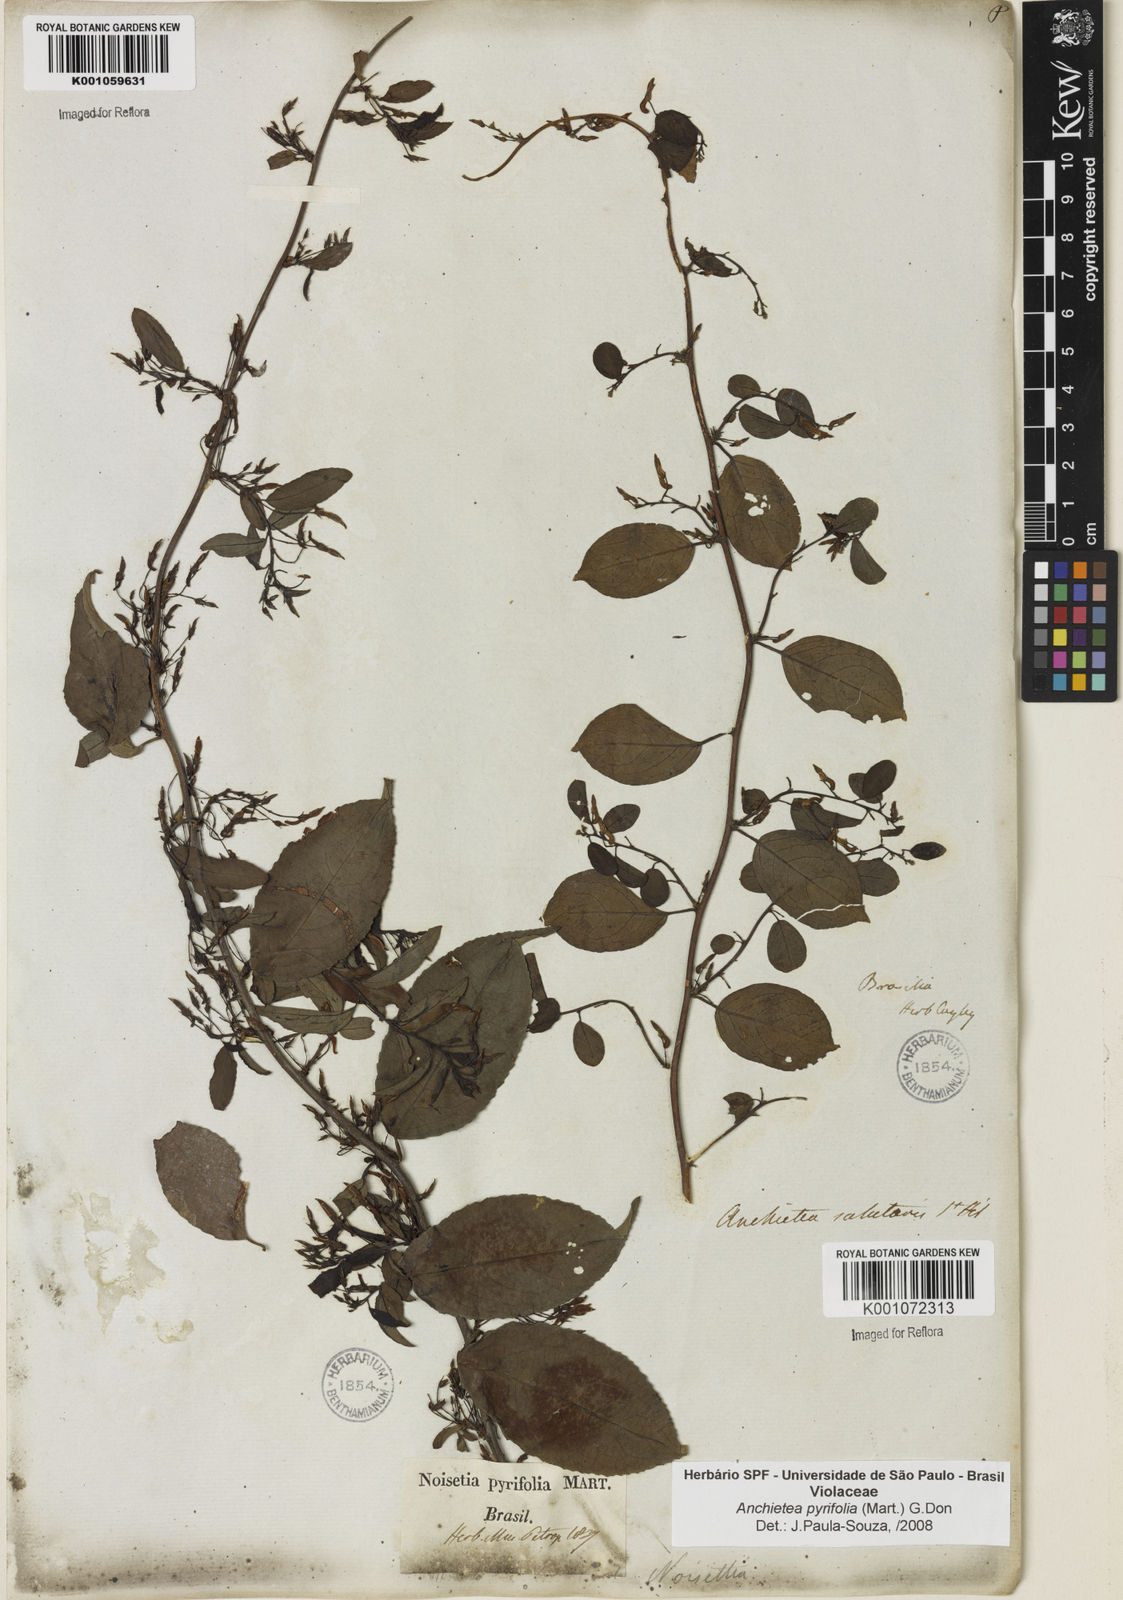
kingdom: Plantae
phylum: Tracheophyta
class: Magnoliopsida
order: Malpighiales
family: Violaceae
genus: Anchietea
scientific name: Anchietea pyrifolia
